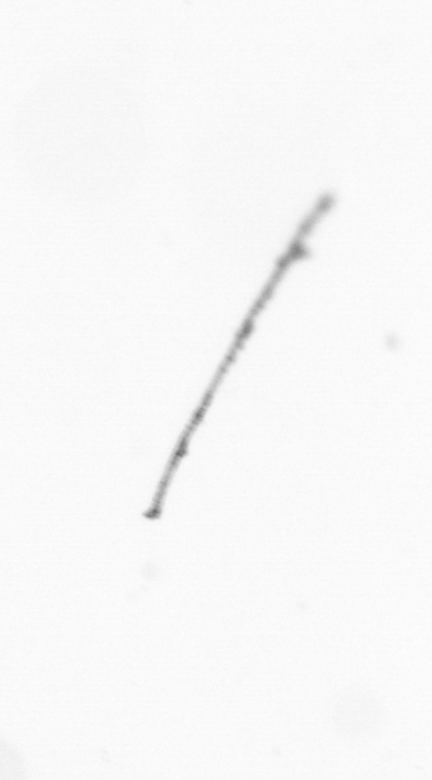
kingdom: Chromista
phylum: Ochrophyta
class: Bacillariophyceae
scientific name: Bacillariophyceae
